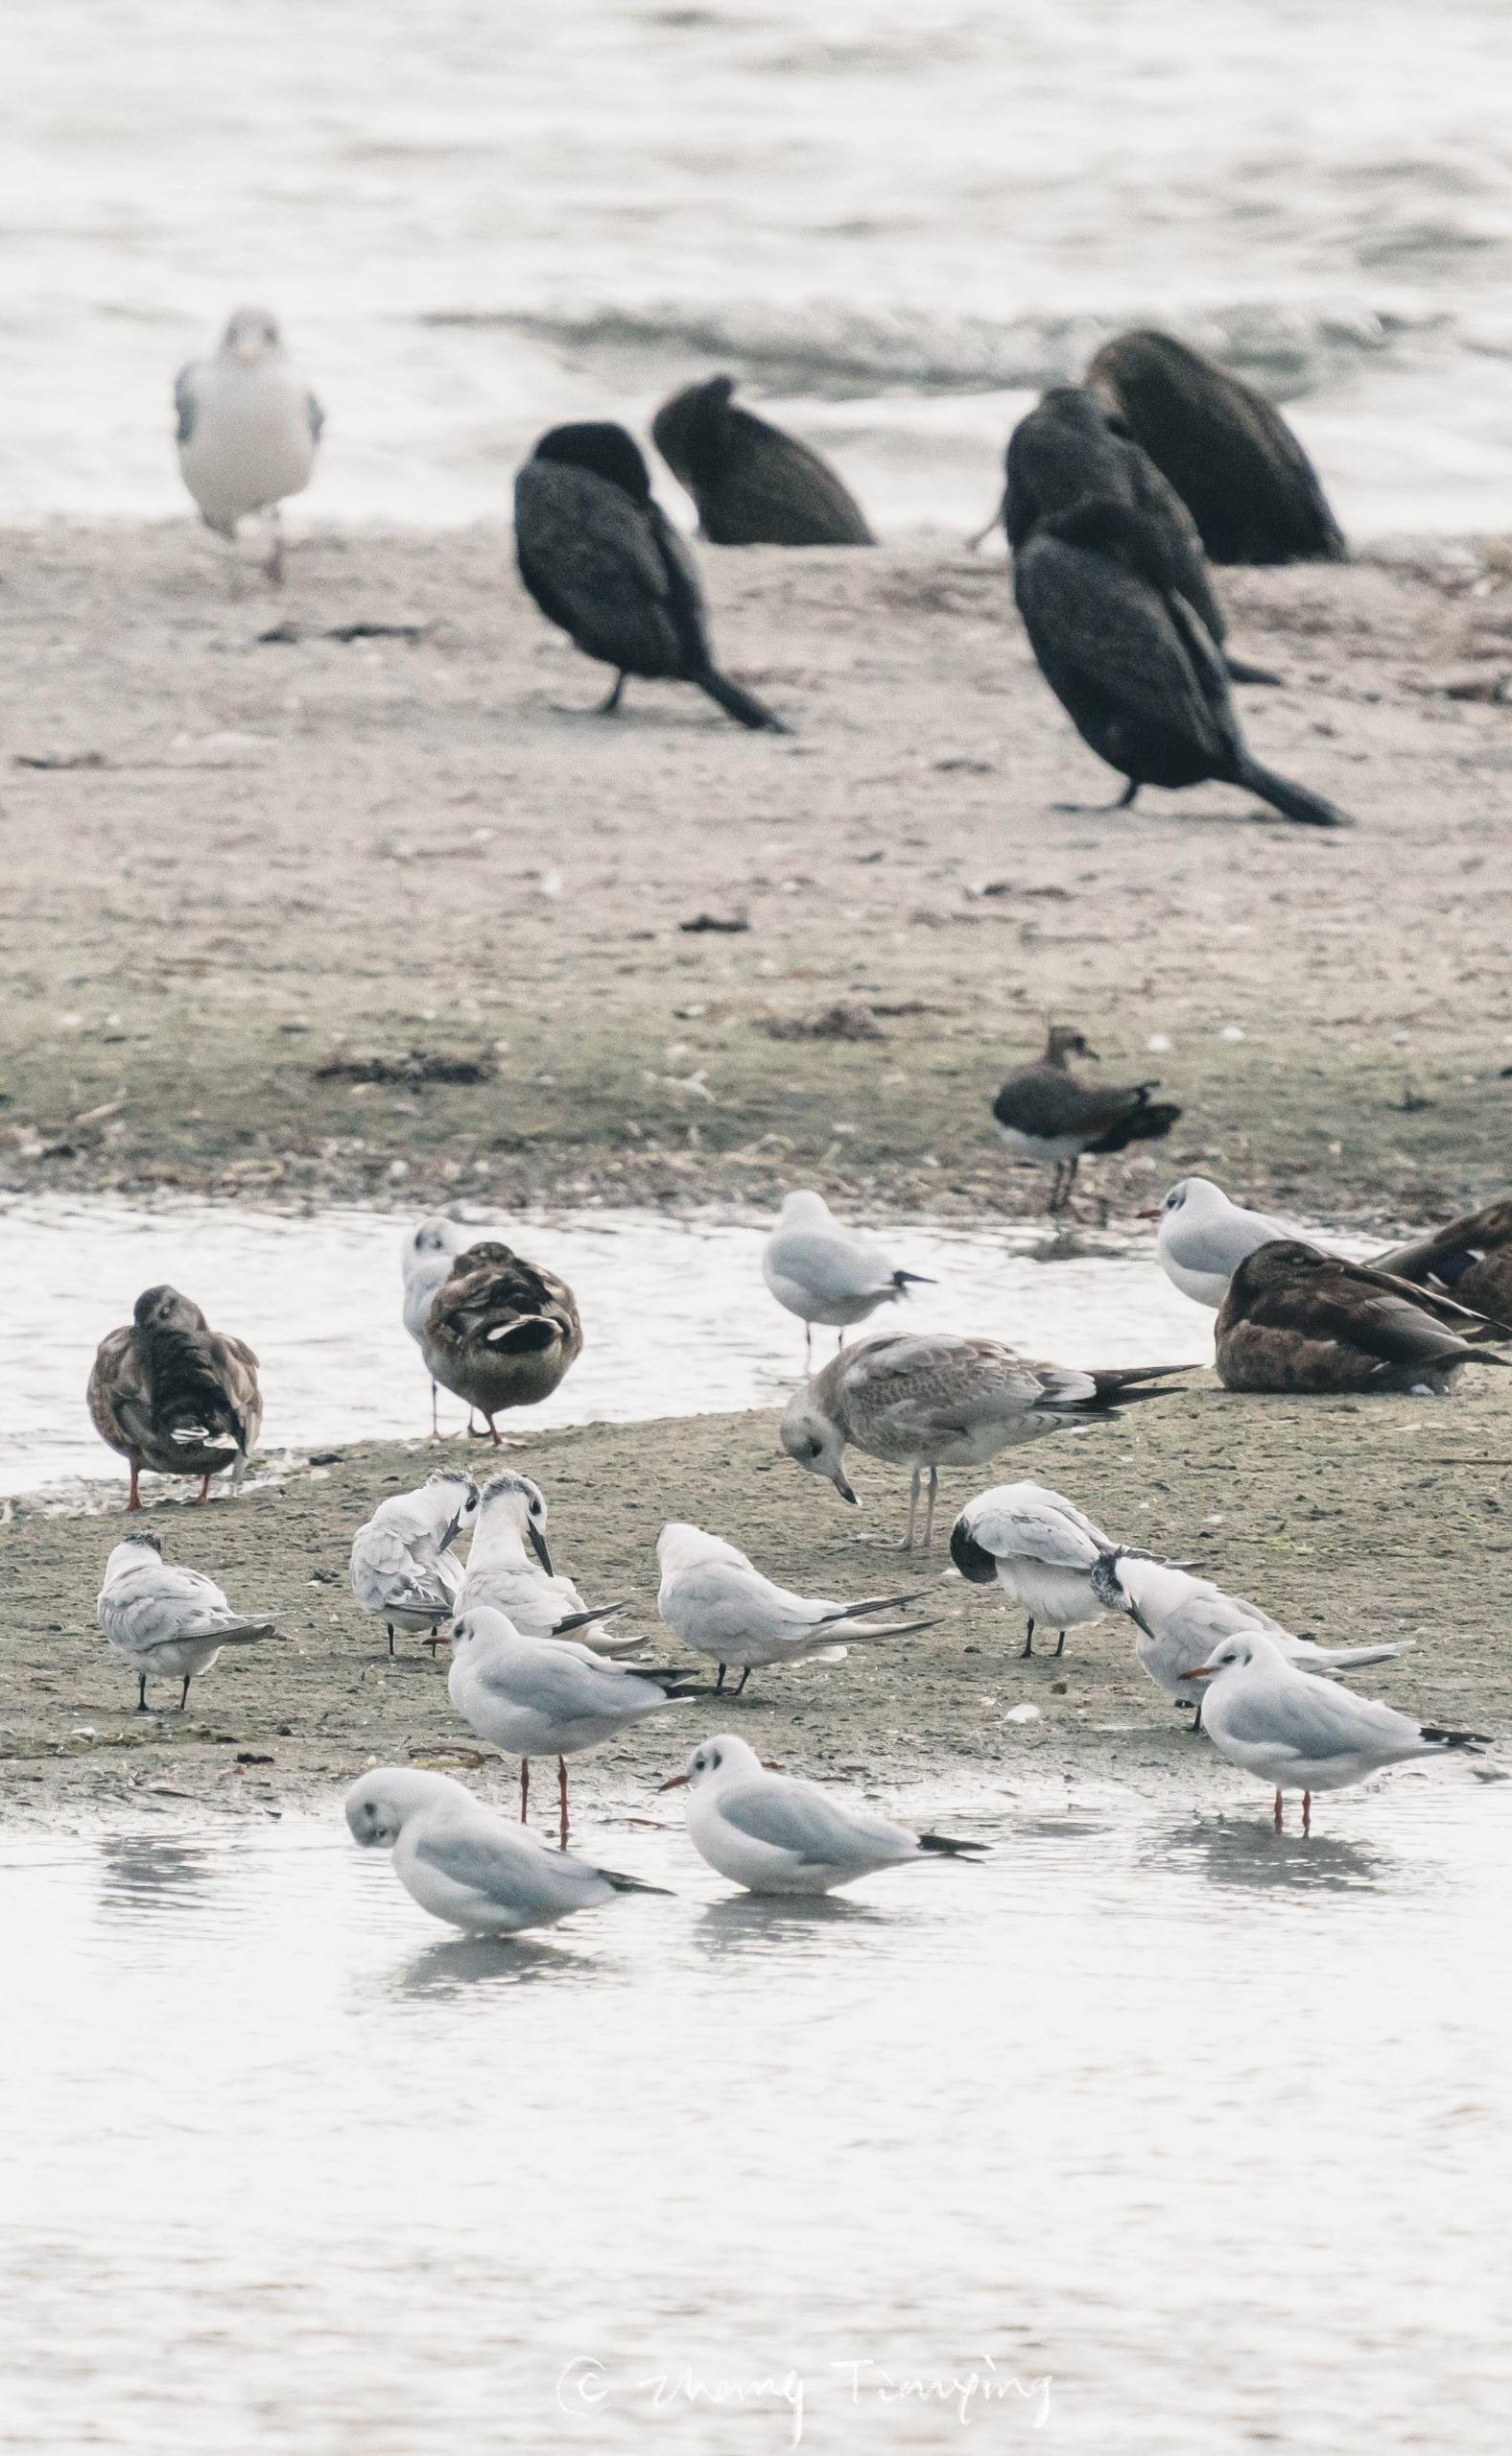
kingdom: Animalia
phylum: Chordata
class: Aves
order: Charadriiformes
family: Laridae
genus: Larus
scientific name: Larus argentatus
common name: Sølvmåge
